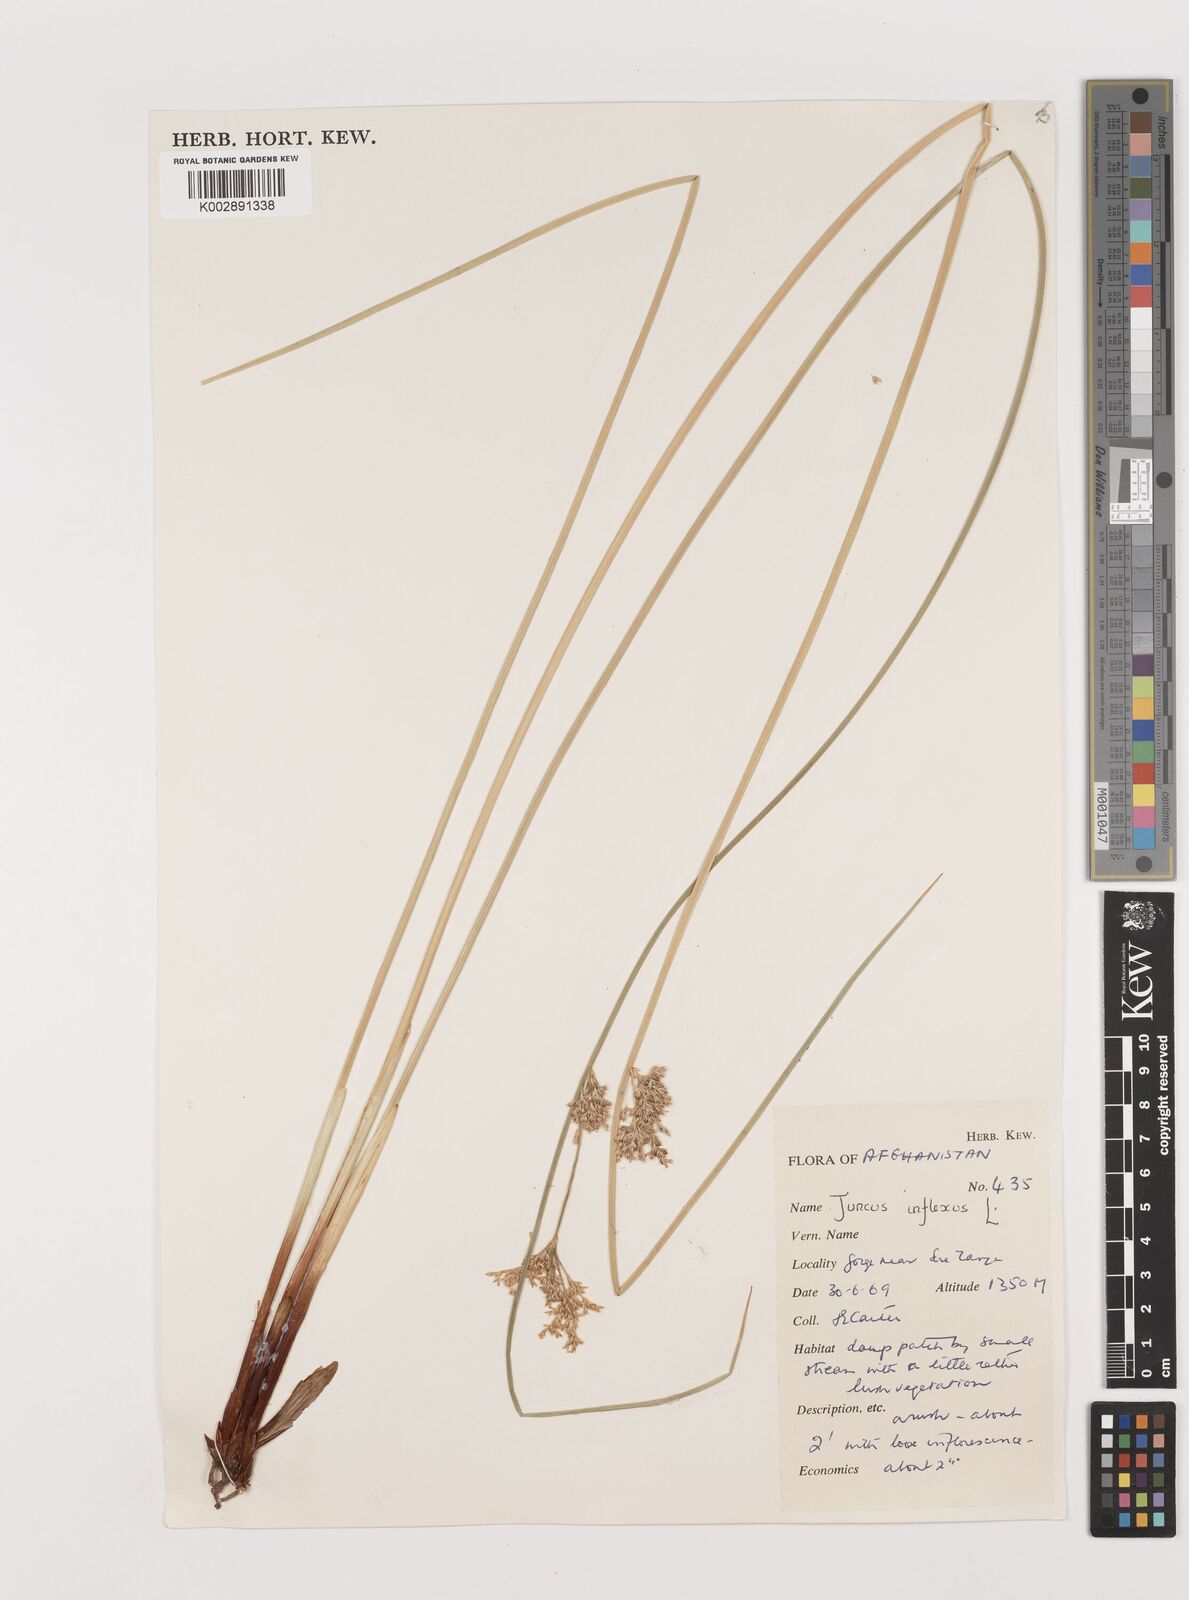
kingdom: Plantae
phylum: Tracheophyta
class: Liliopsida
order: Poales
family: Juncaceae
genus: Juncus
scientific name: Juncus inflexus
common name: Hard rush
